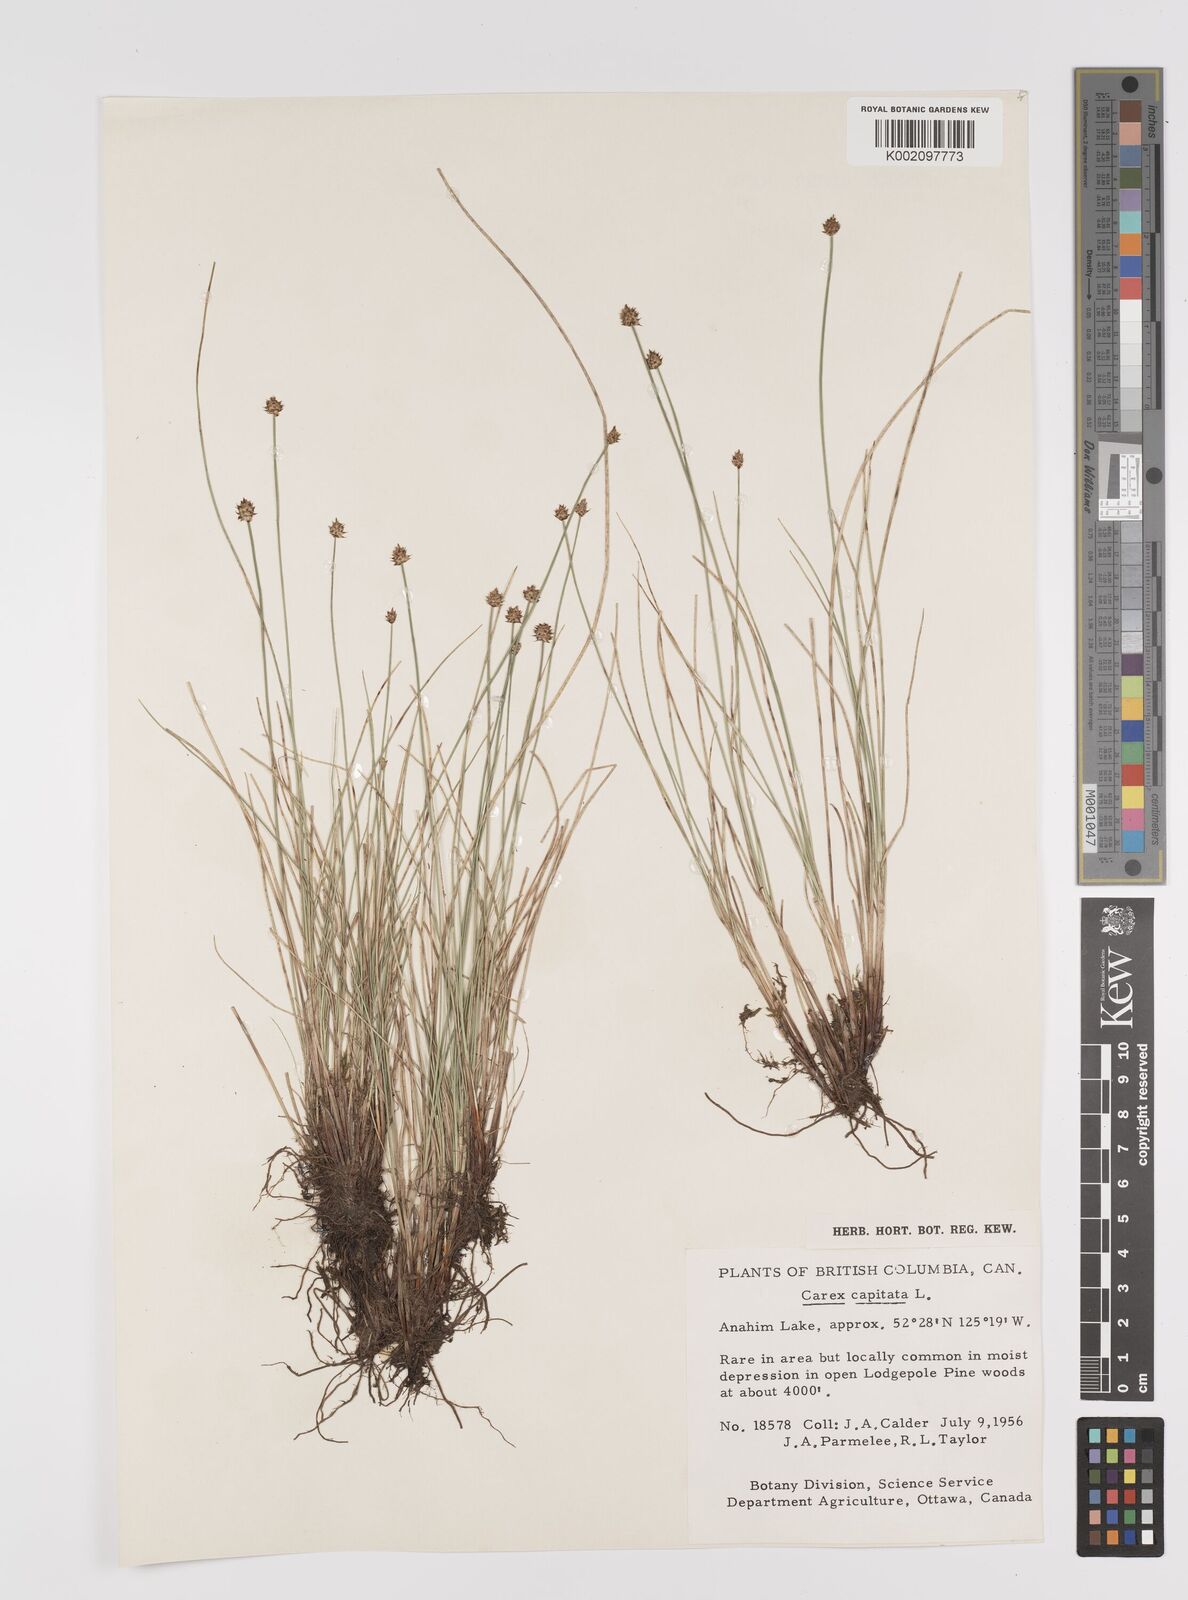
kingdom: Plantae
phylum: Tracheophyta
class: Liliopsida
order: Poales
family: Cyperaceae
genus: Carex
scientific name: Carex capitata
